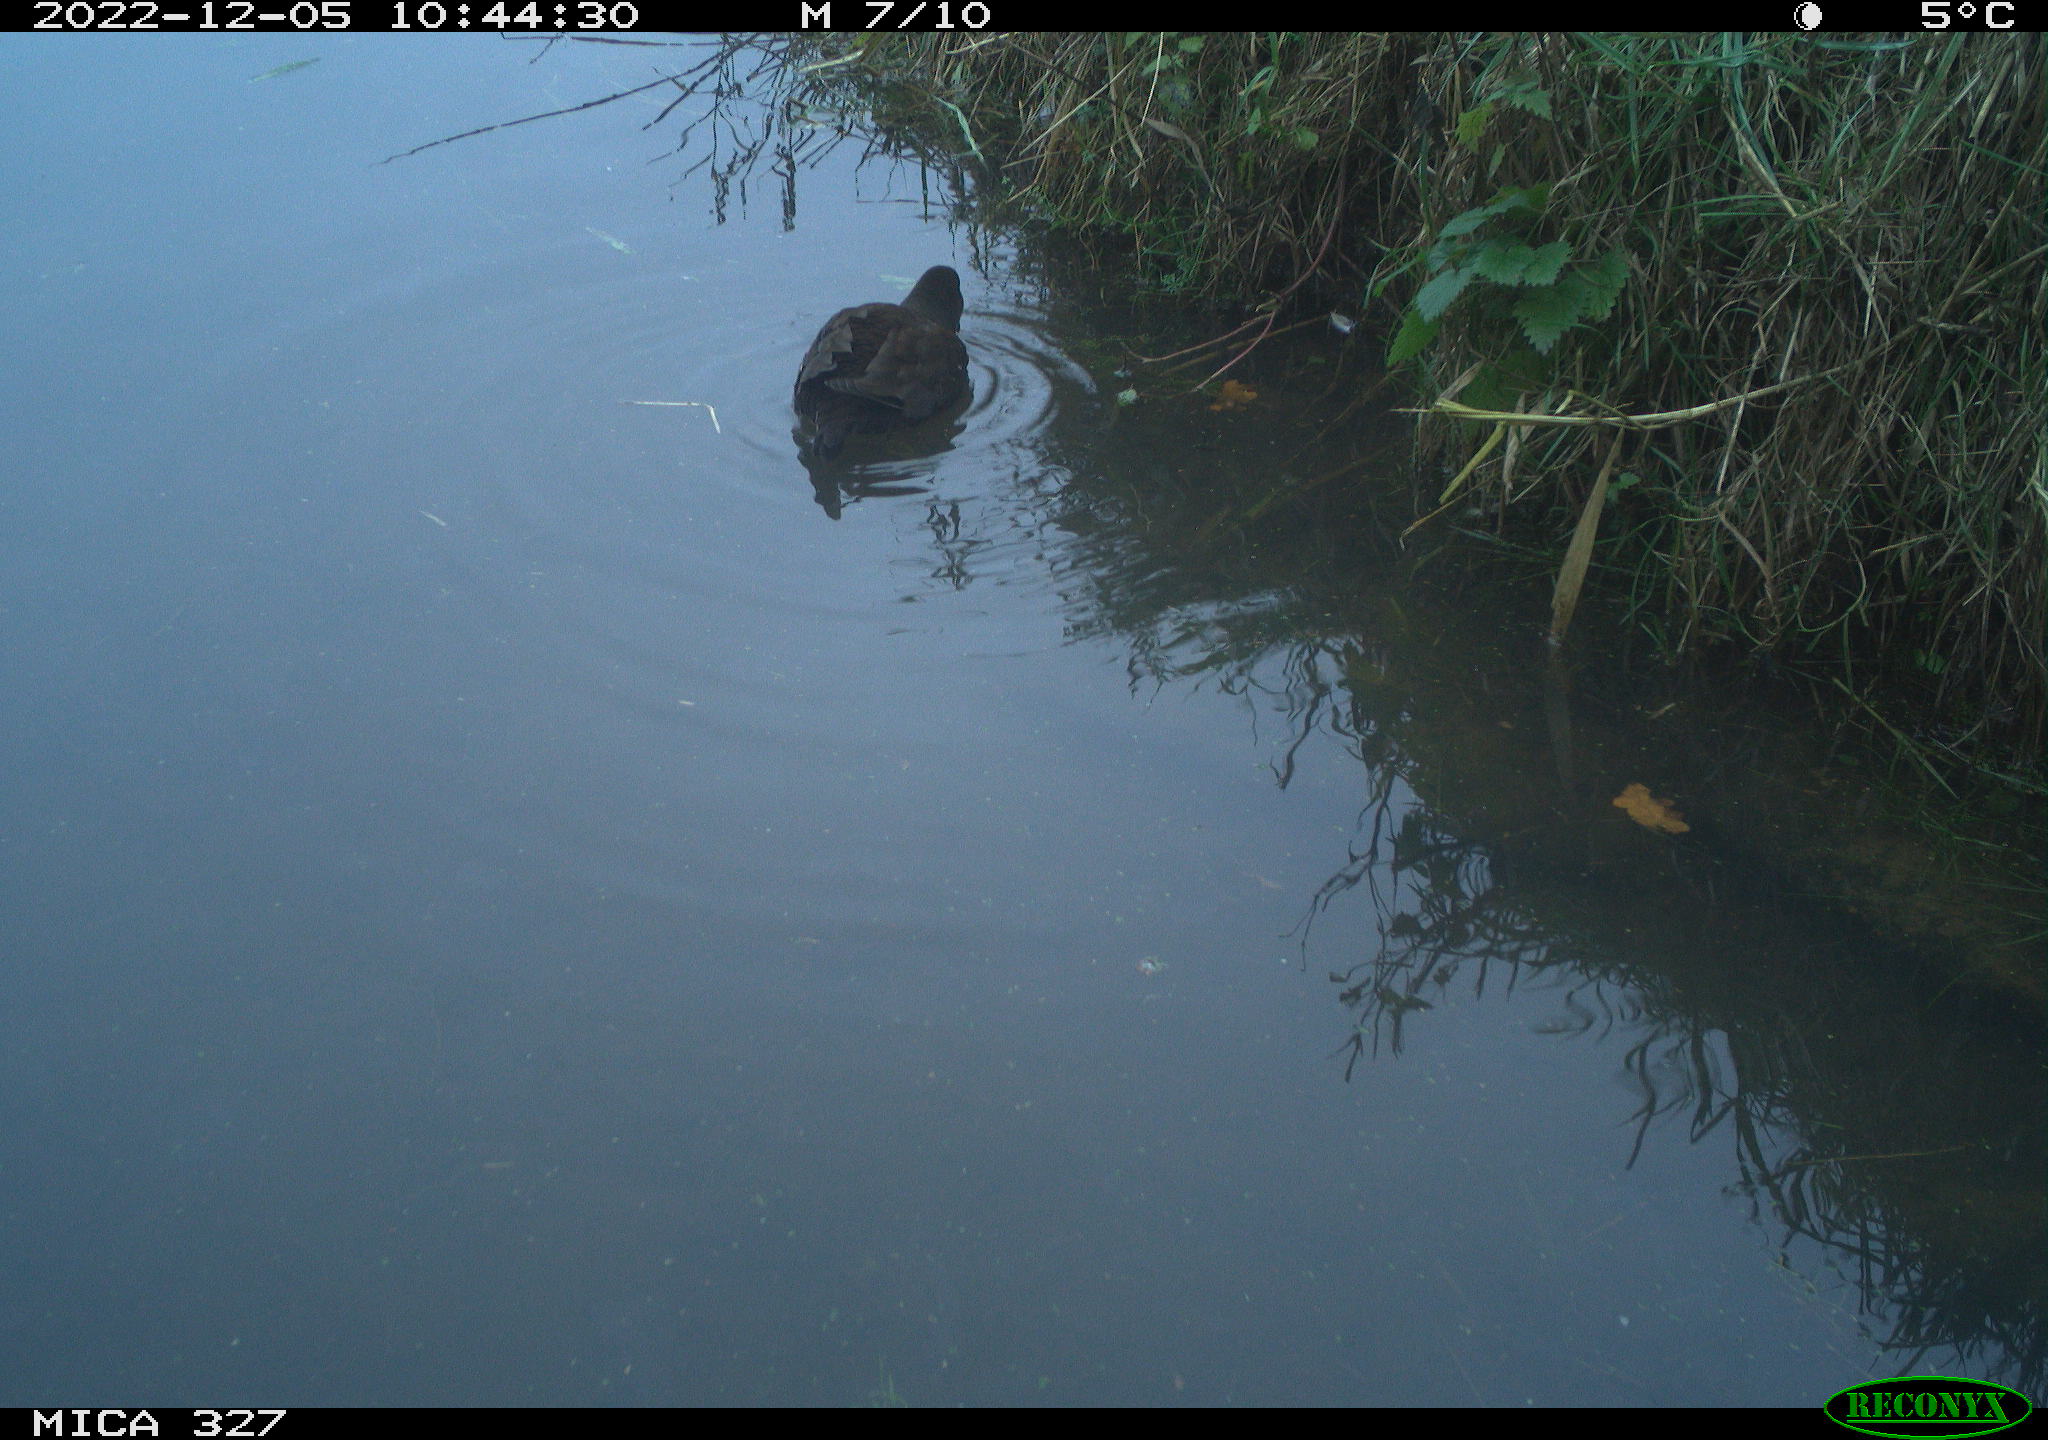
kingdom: Animalia
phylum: Chordata
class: Aves
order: Anseriformes
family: Anatidae
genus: Anas
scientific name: Anas
